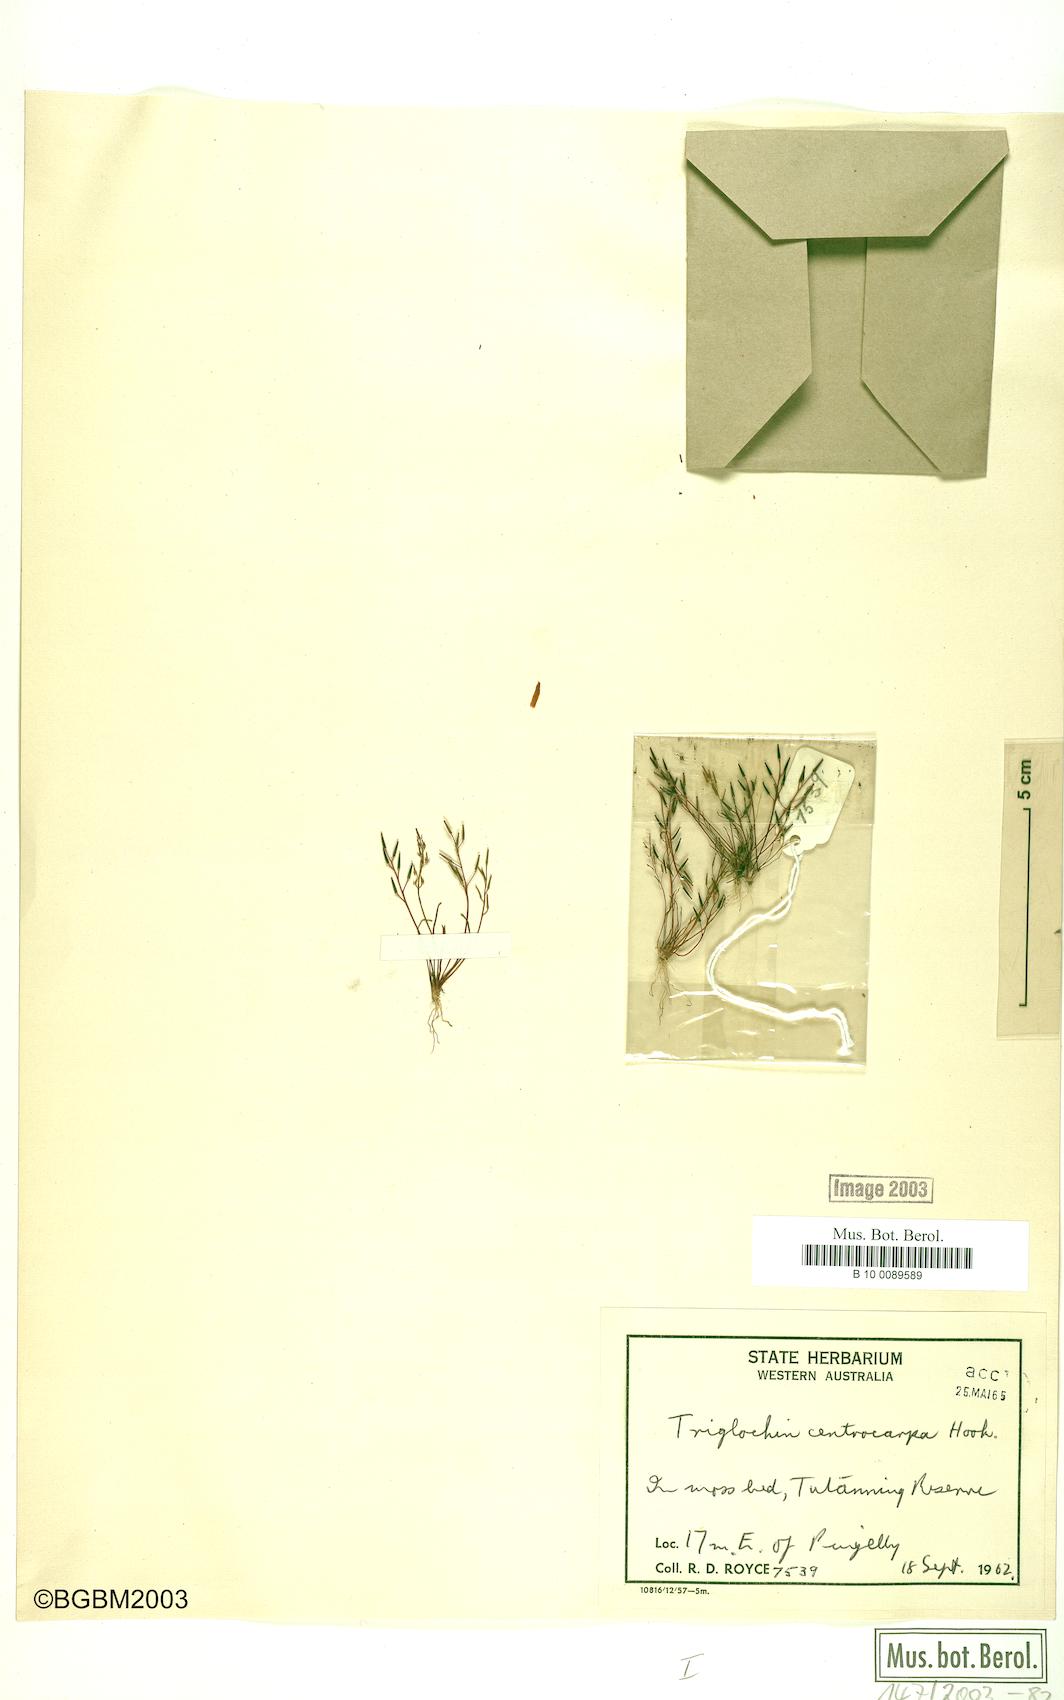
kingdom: Plantae
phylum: Tracheophyta
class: Liliopsida
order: Alismatales
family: Juncaginaceae
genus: Triglochin
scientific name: Triglochin centrocarpa
